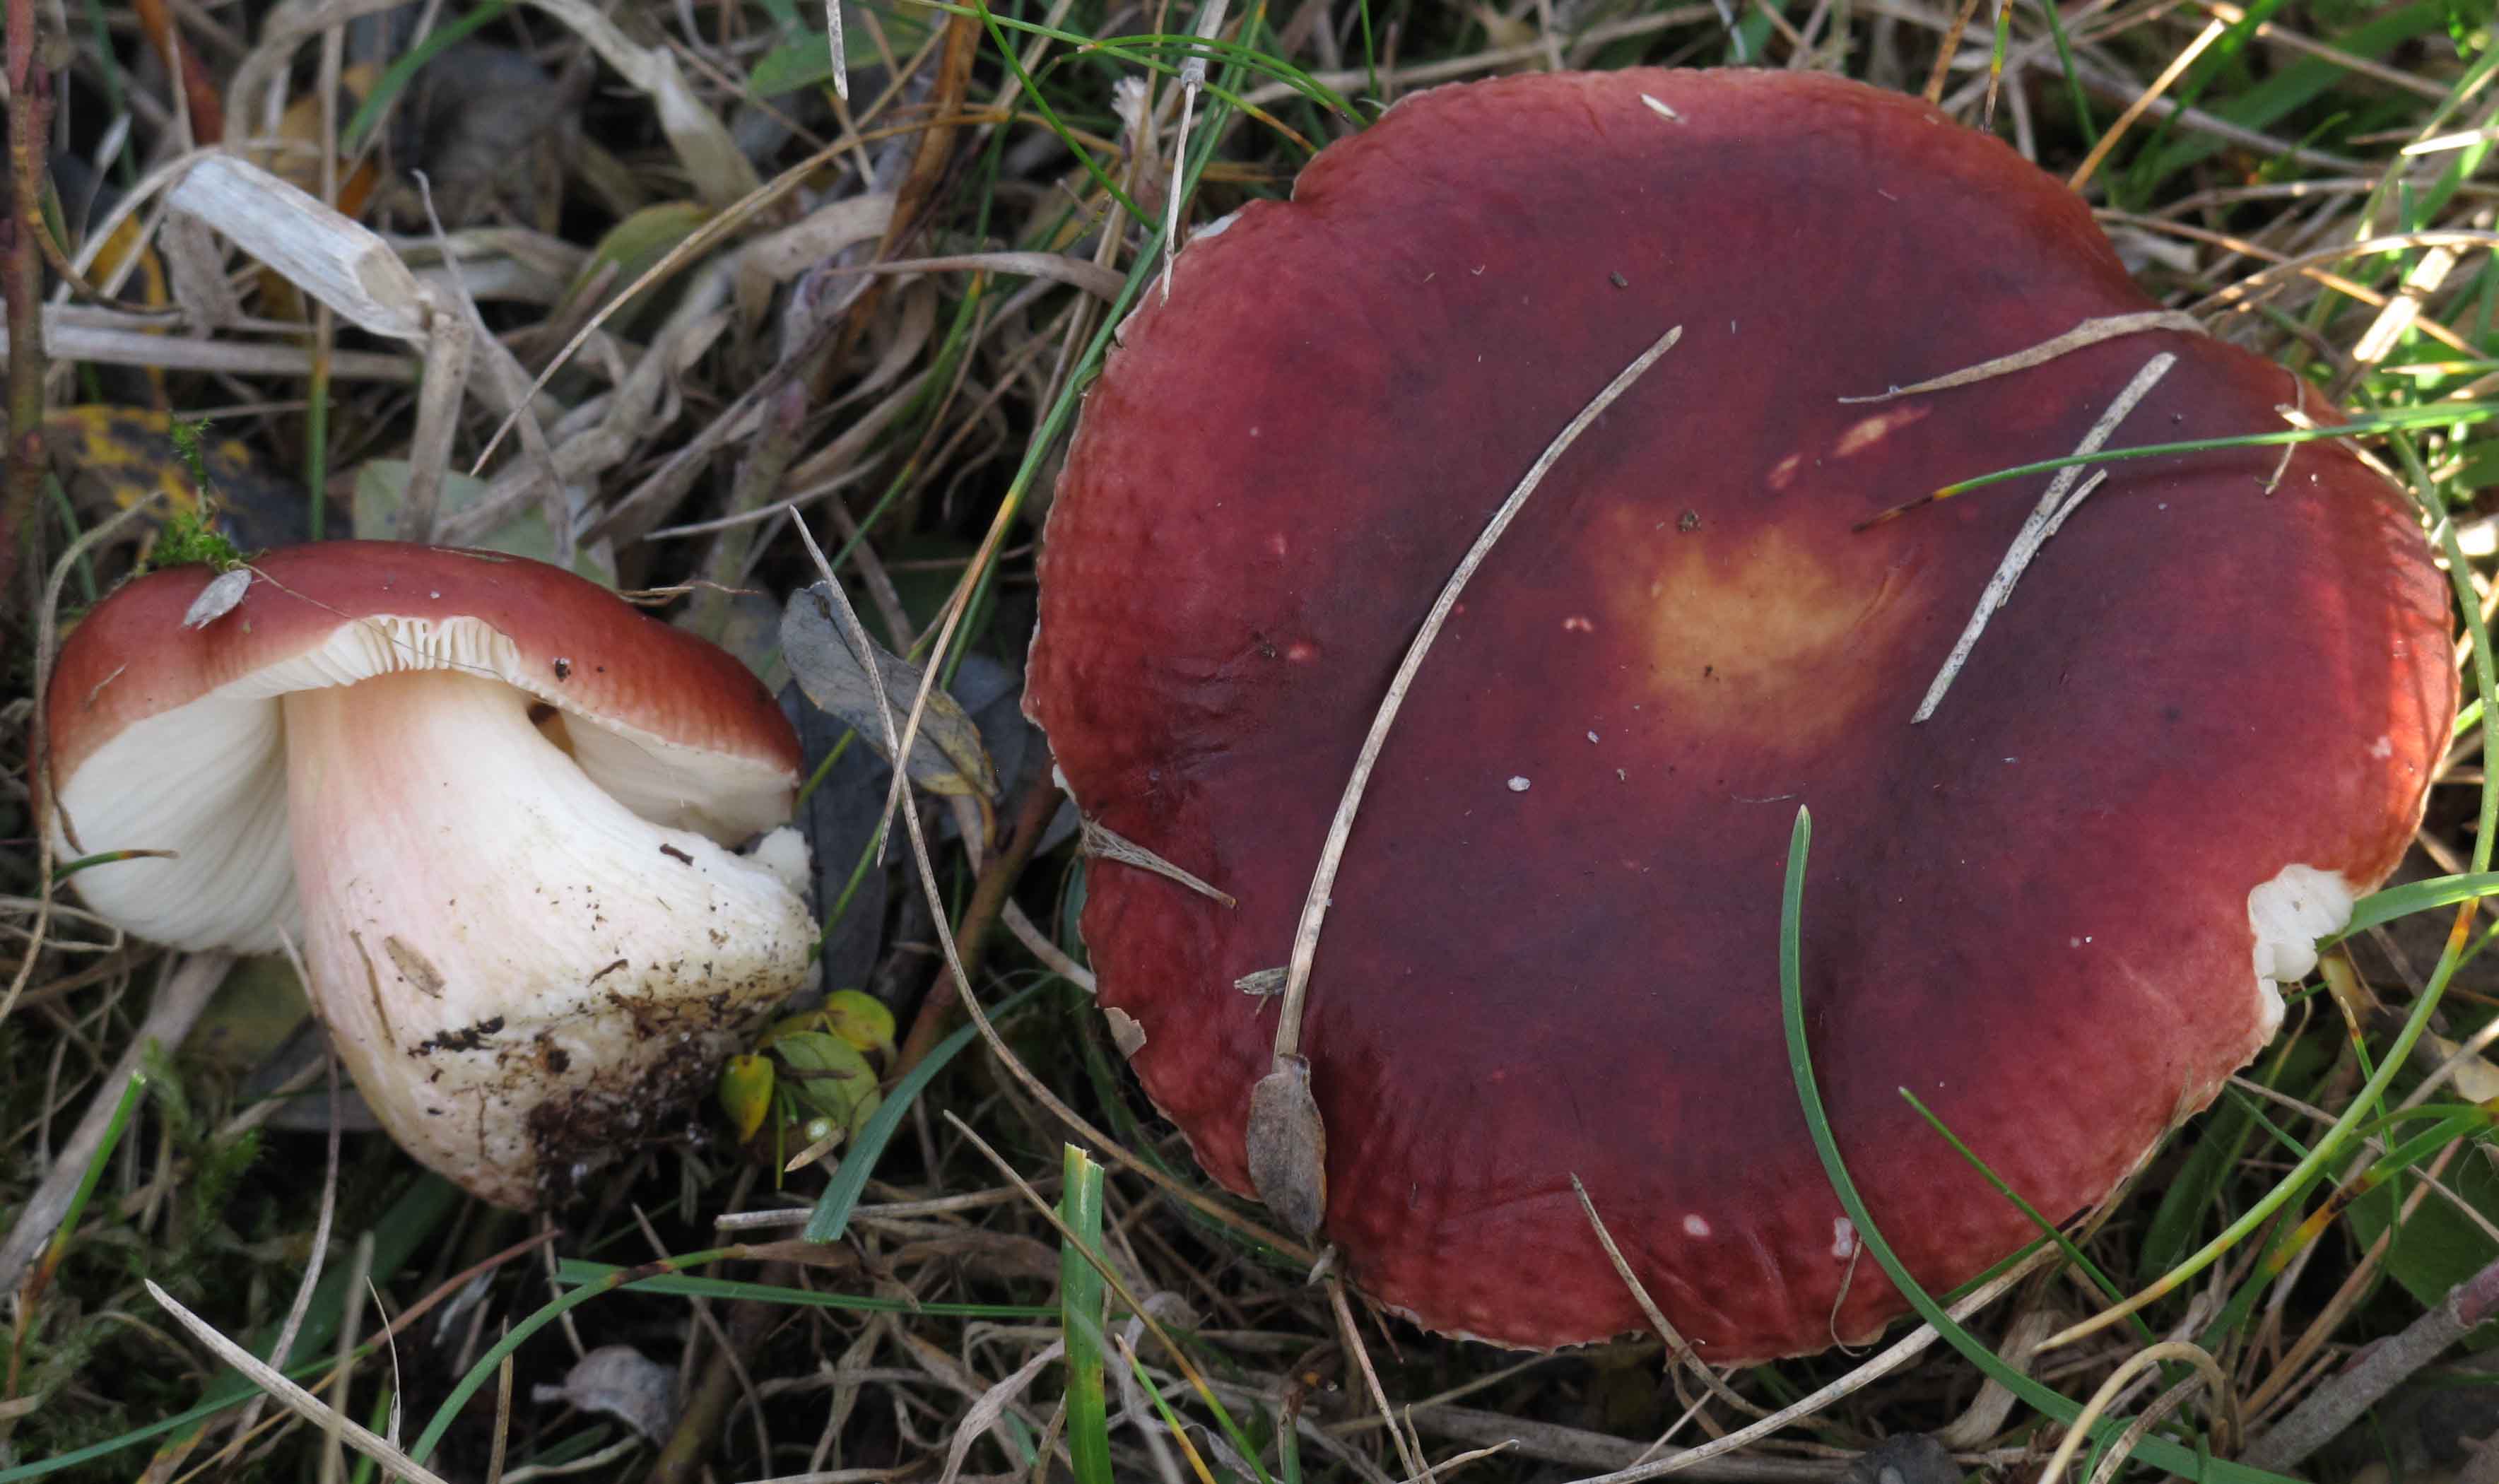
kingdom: Fungi
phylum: Basidiomycota
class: Agaricomycetes
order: Russulales
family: Russulaceae
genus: Russula
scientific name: Russula subrubens
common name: pile-skørhat
